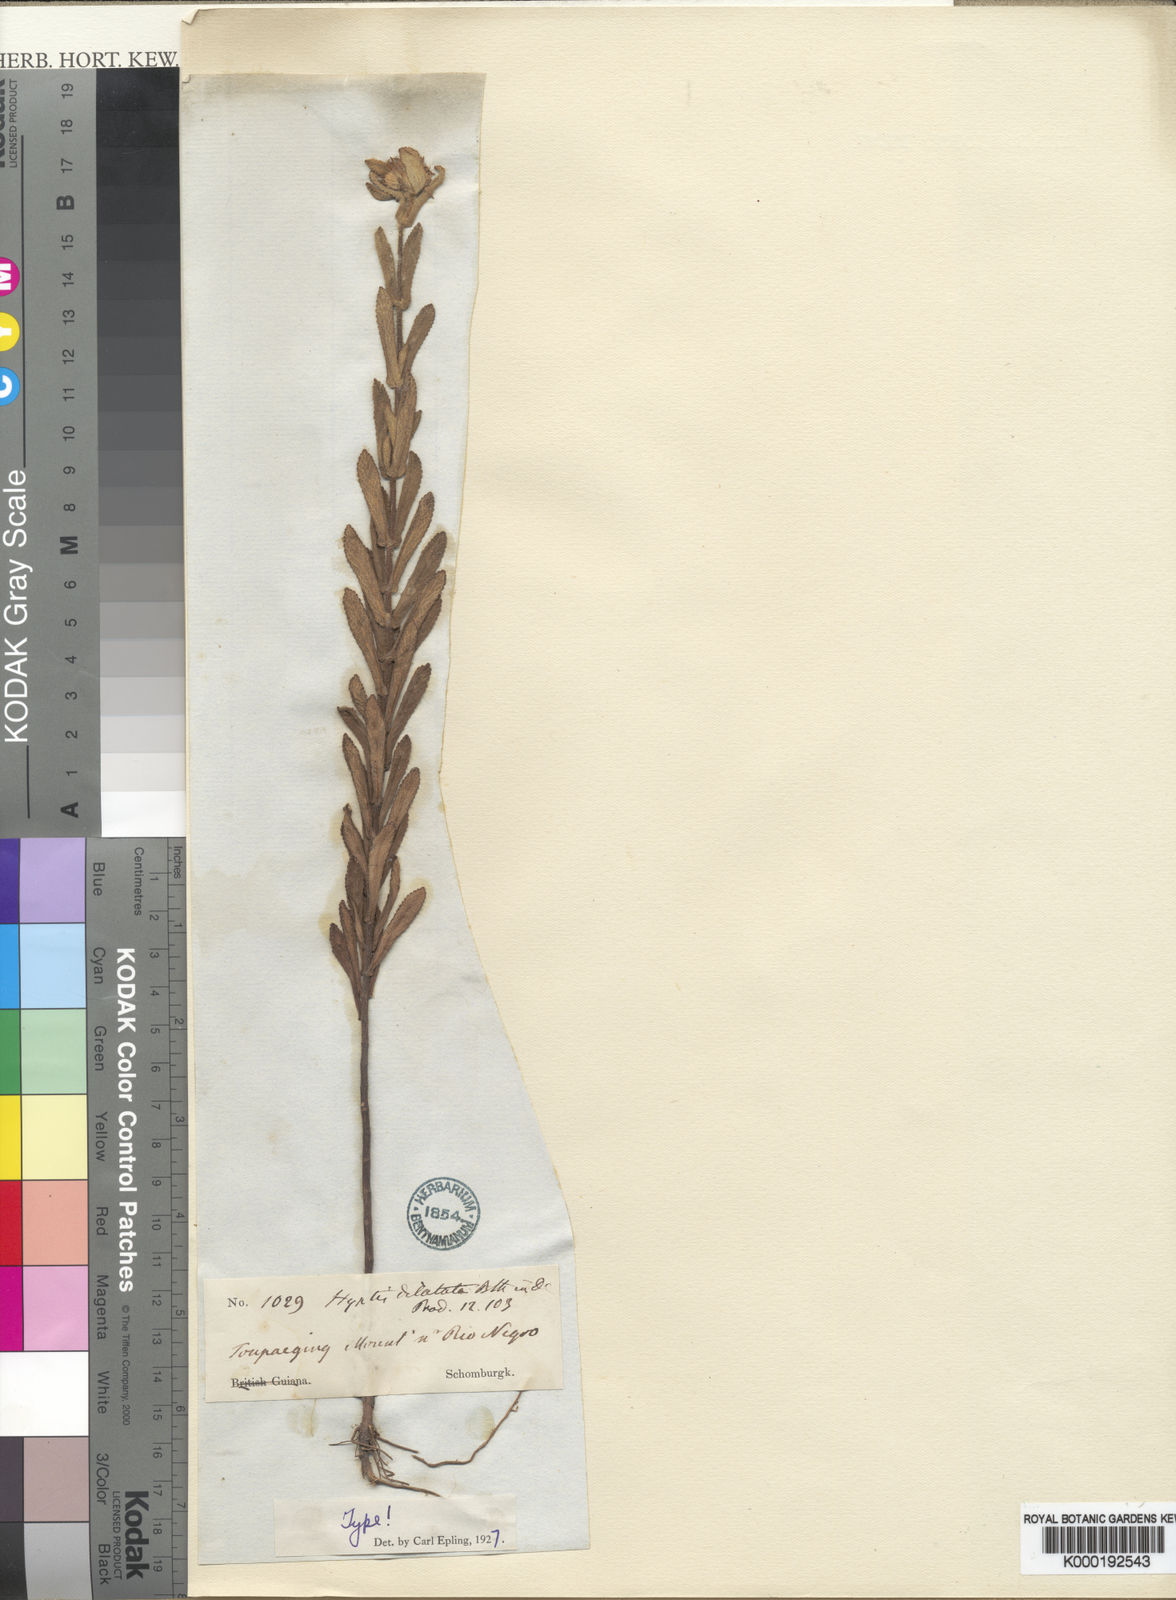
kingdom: Plantae
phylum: Tracheophyta
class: Magnoliopsida
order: Lamiales
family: Lamiaceae
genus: Hyptis
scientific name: Hyptis dilatata
